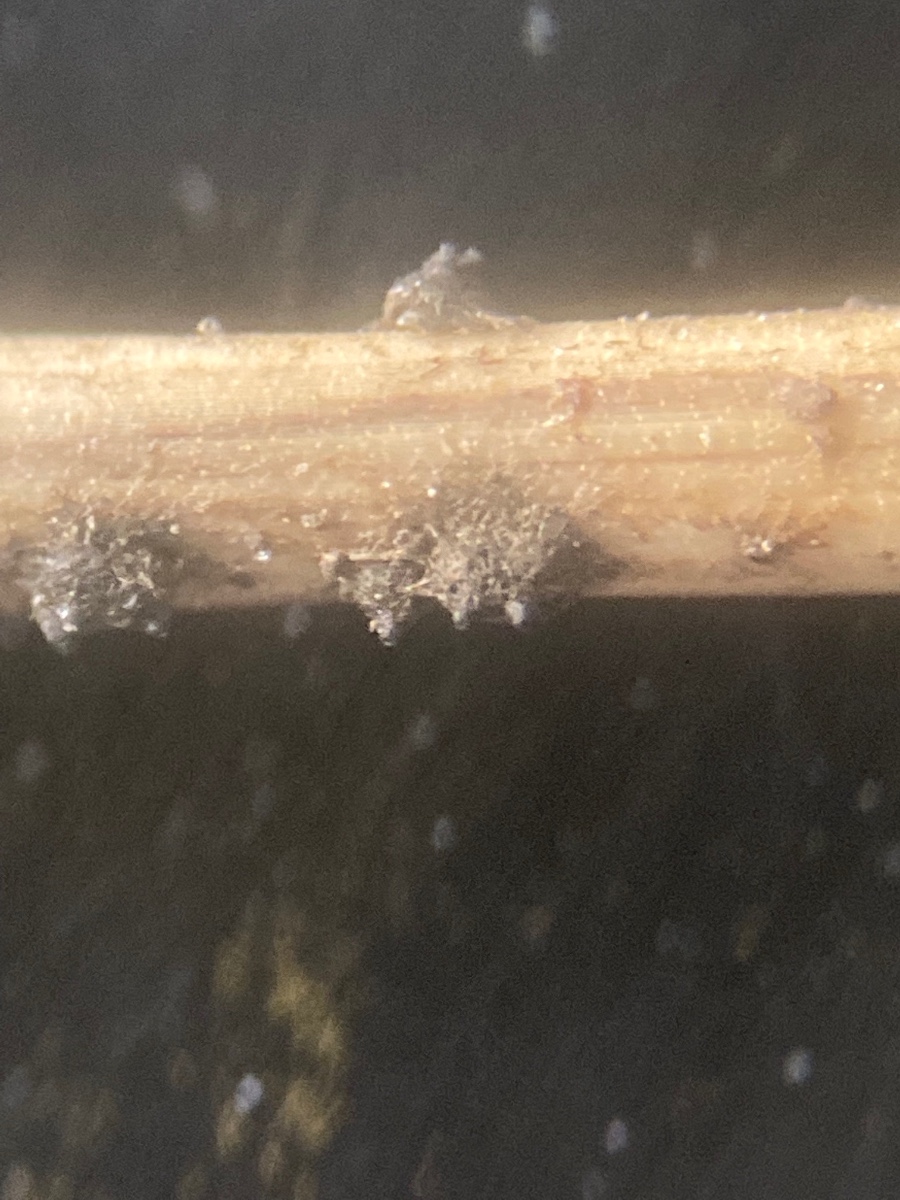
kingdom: Fungi
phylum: Ascomycota
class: Dothideomycetes
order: Pleosporales
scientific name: Pleosporales
